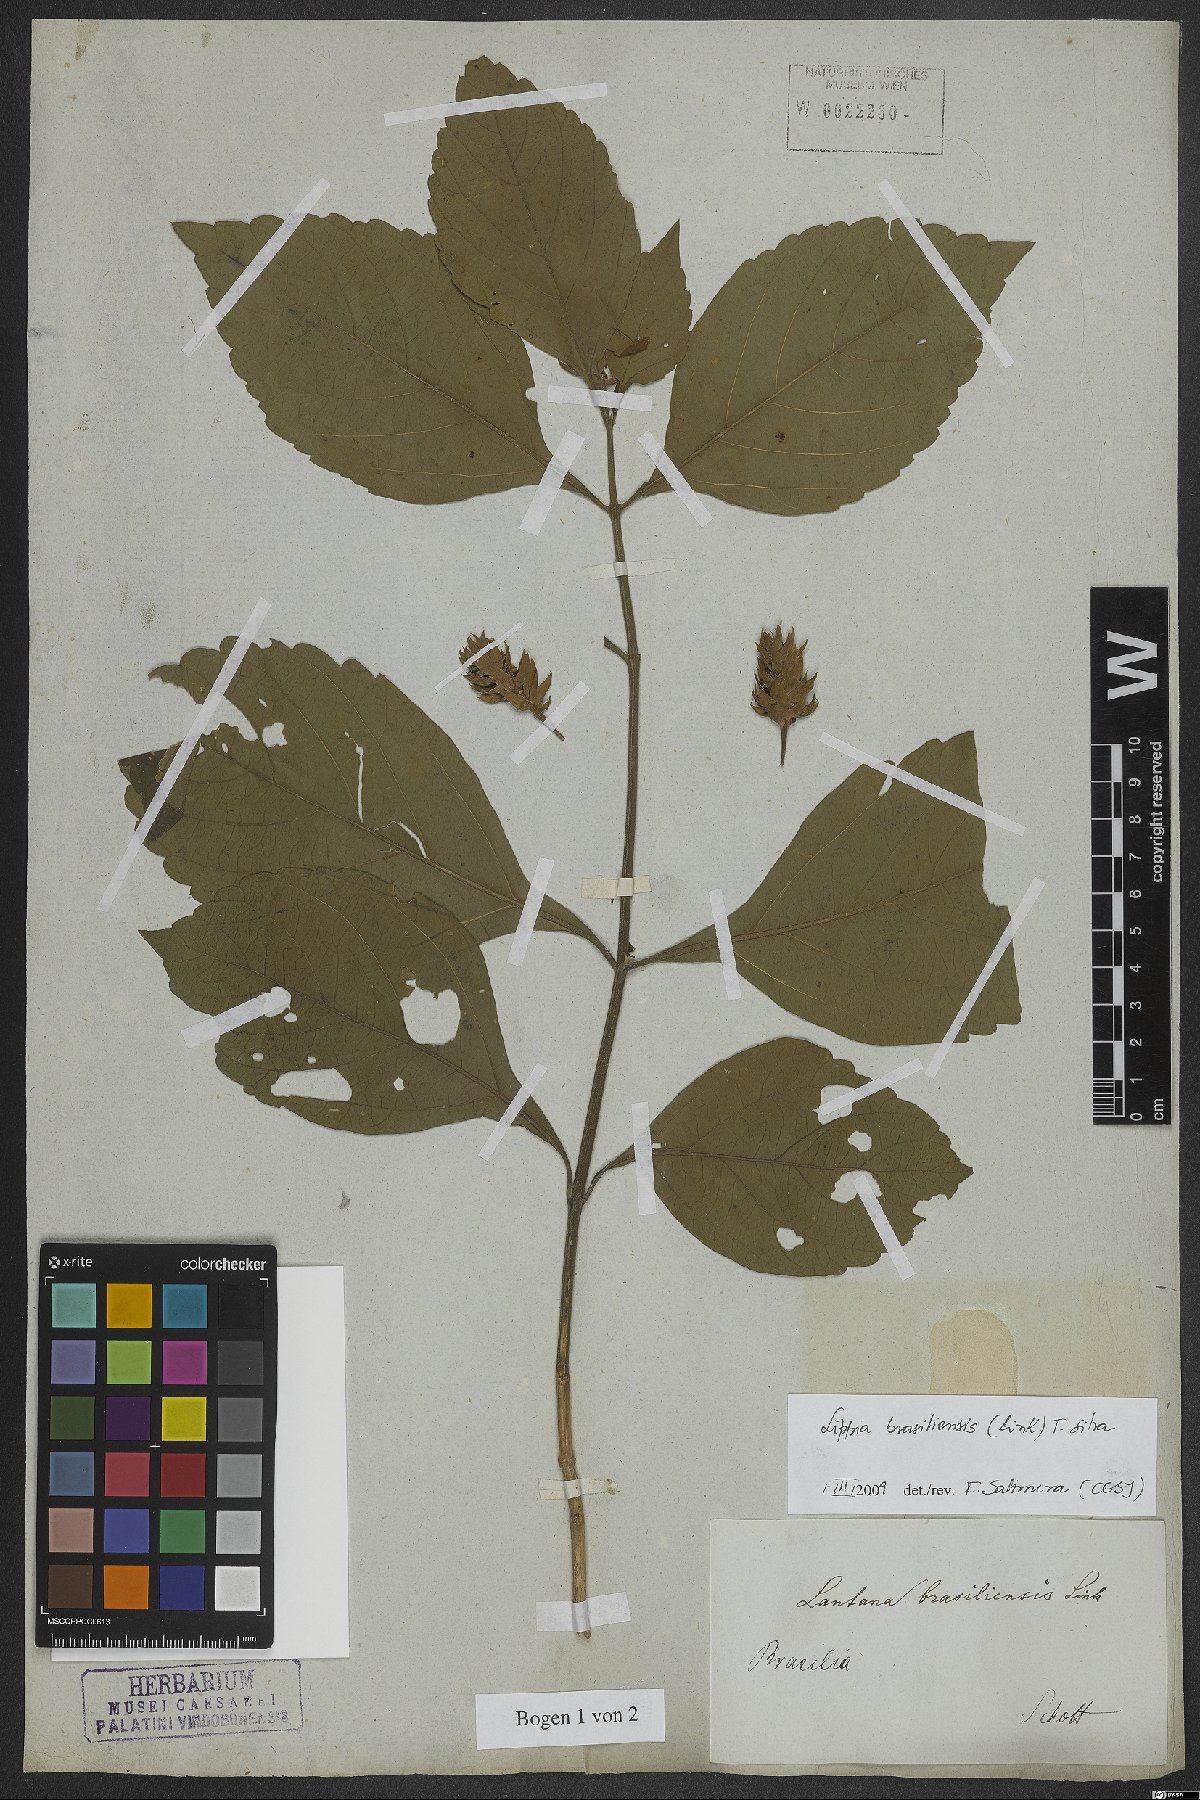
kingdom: Plantae
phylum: Tracheophyta
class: Magnoliopsida
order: Lamiales
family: Verbenaceae
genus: Lippia
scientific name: Lippia brasiliensis
